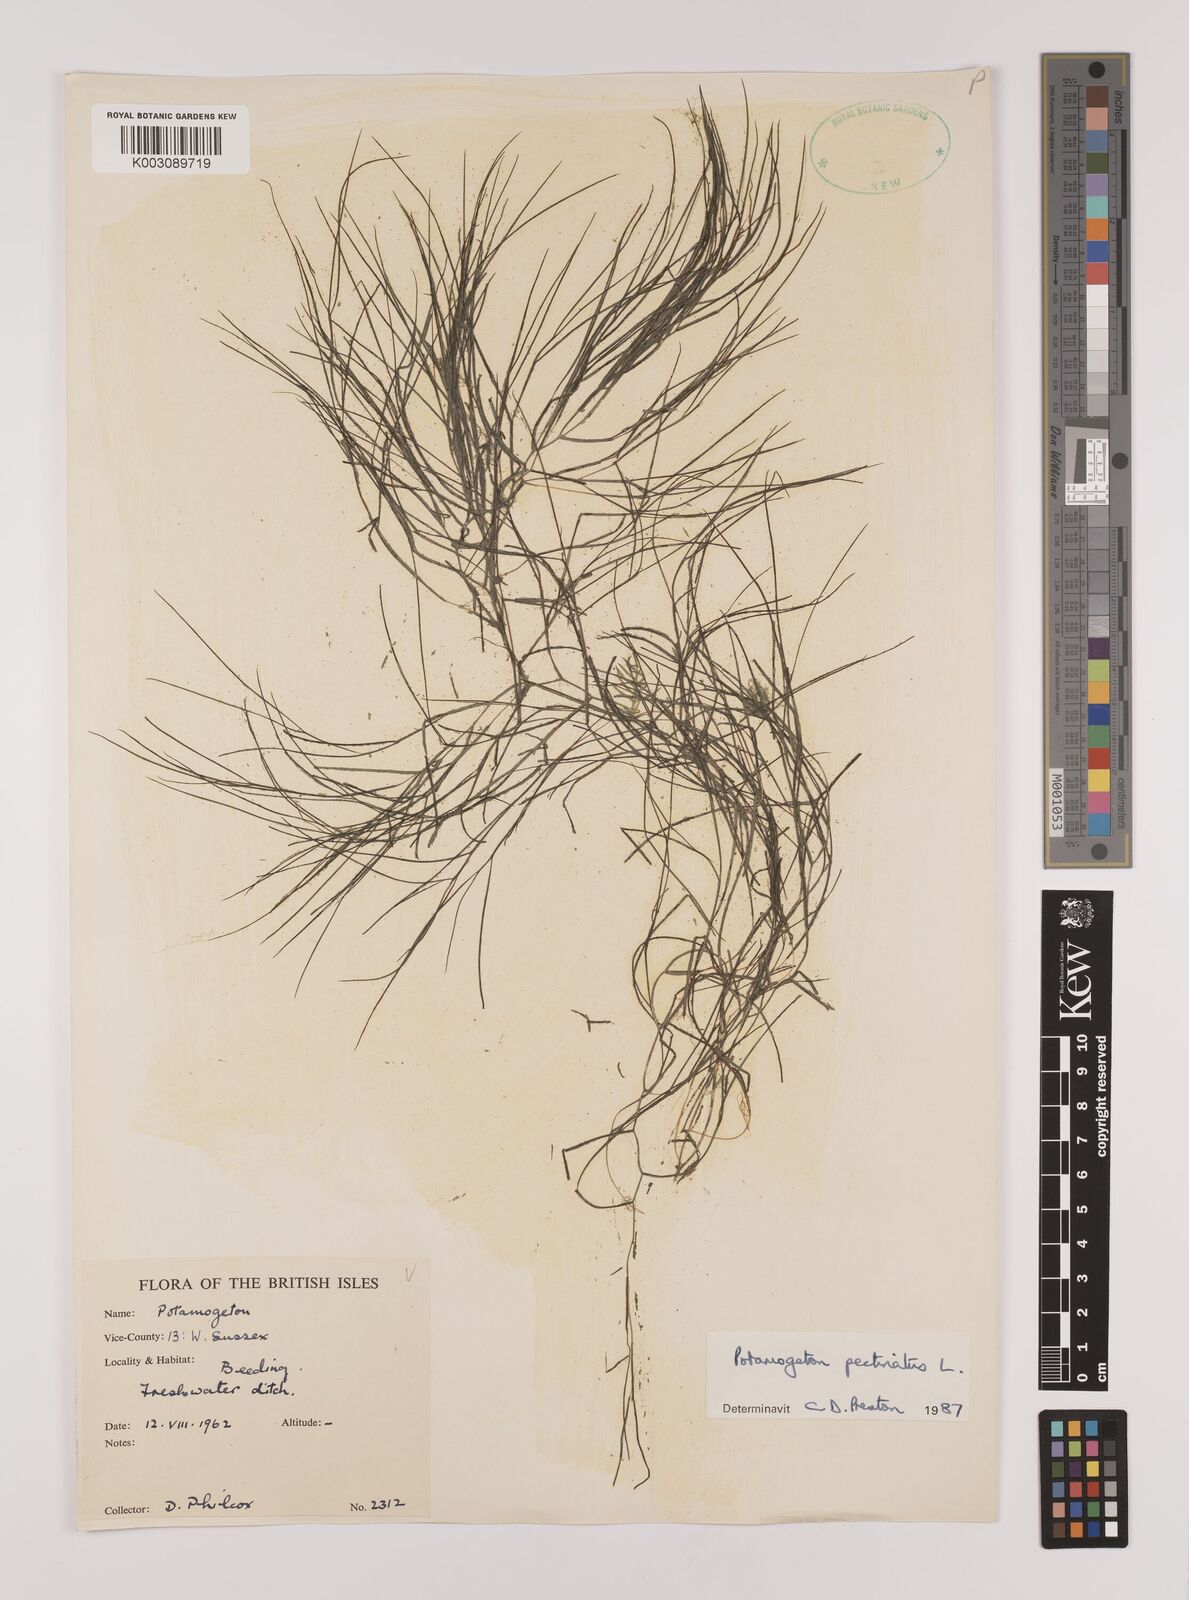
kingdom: Plantae
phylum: Tracheophyta
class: Liliopsida
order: Alismatales
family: Potamogetonaceae
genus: Stuckenia
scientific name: Stuckenia pectinata
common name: Sago pondweed
